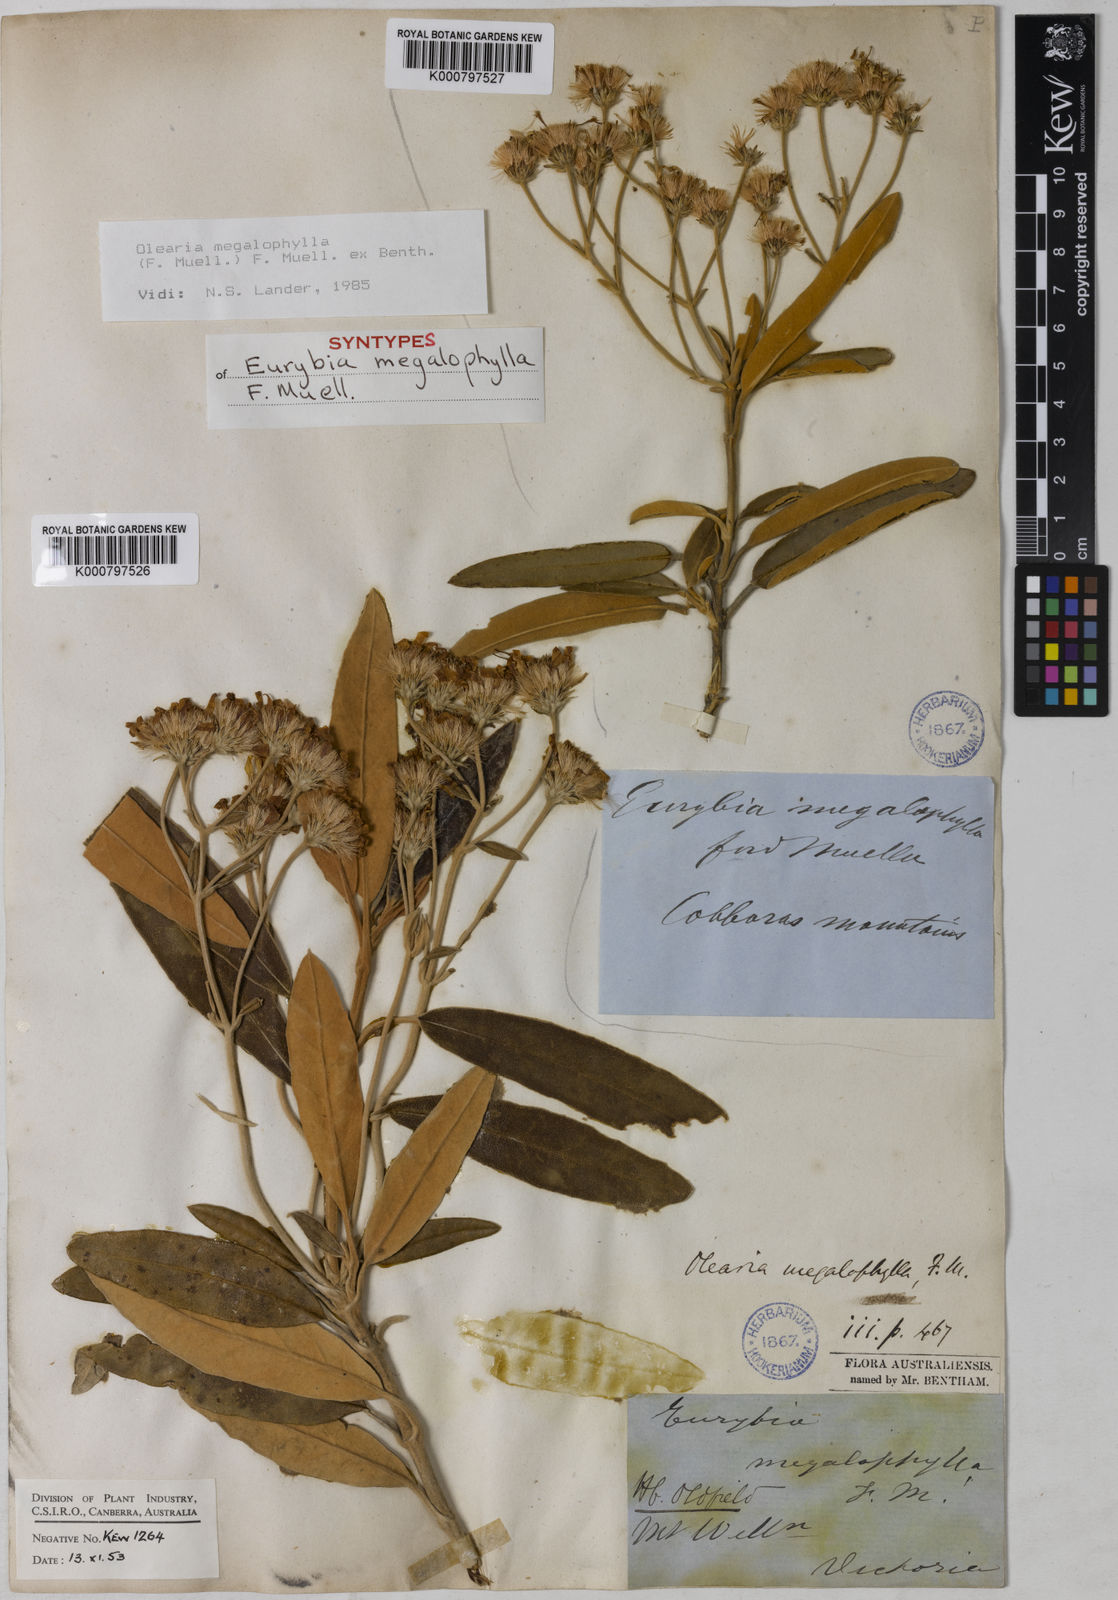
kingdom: Plantae
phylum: Tracheophyta
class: Magnoliopsida
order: Asterales
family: Asteraceae
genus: Olearia
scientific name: Olearia
